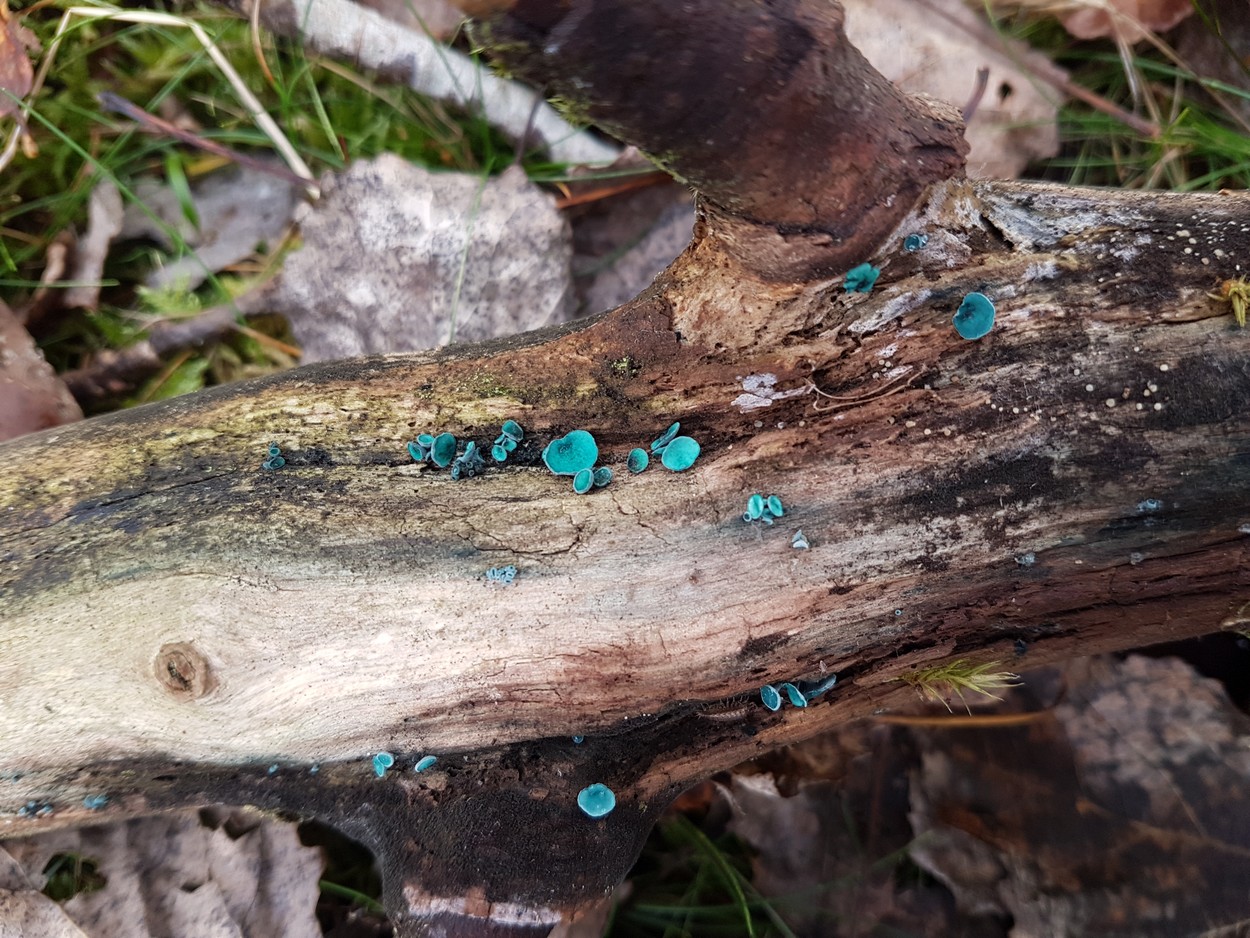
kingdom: Fungi
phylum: Ascomycota
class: Leotiomycetes
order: Helotiales
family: Chlorociboriaceae
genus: Chlorociboria
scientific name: Chlorociboria aeruginascens
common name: almindelig grønskive
